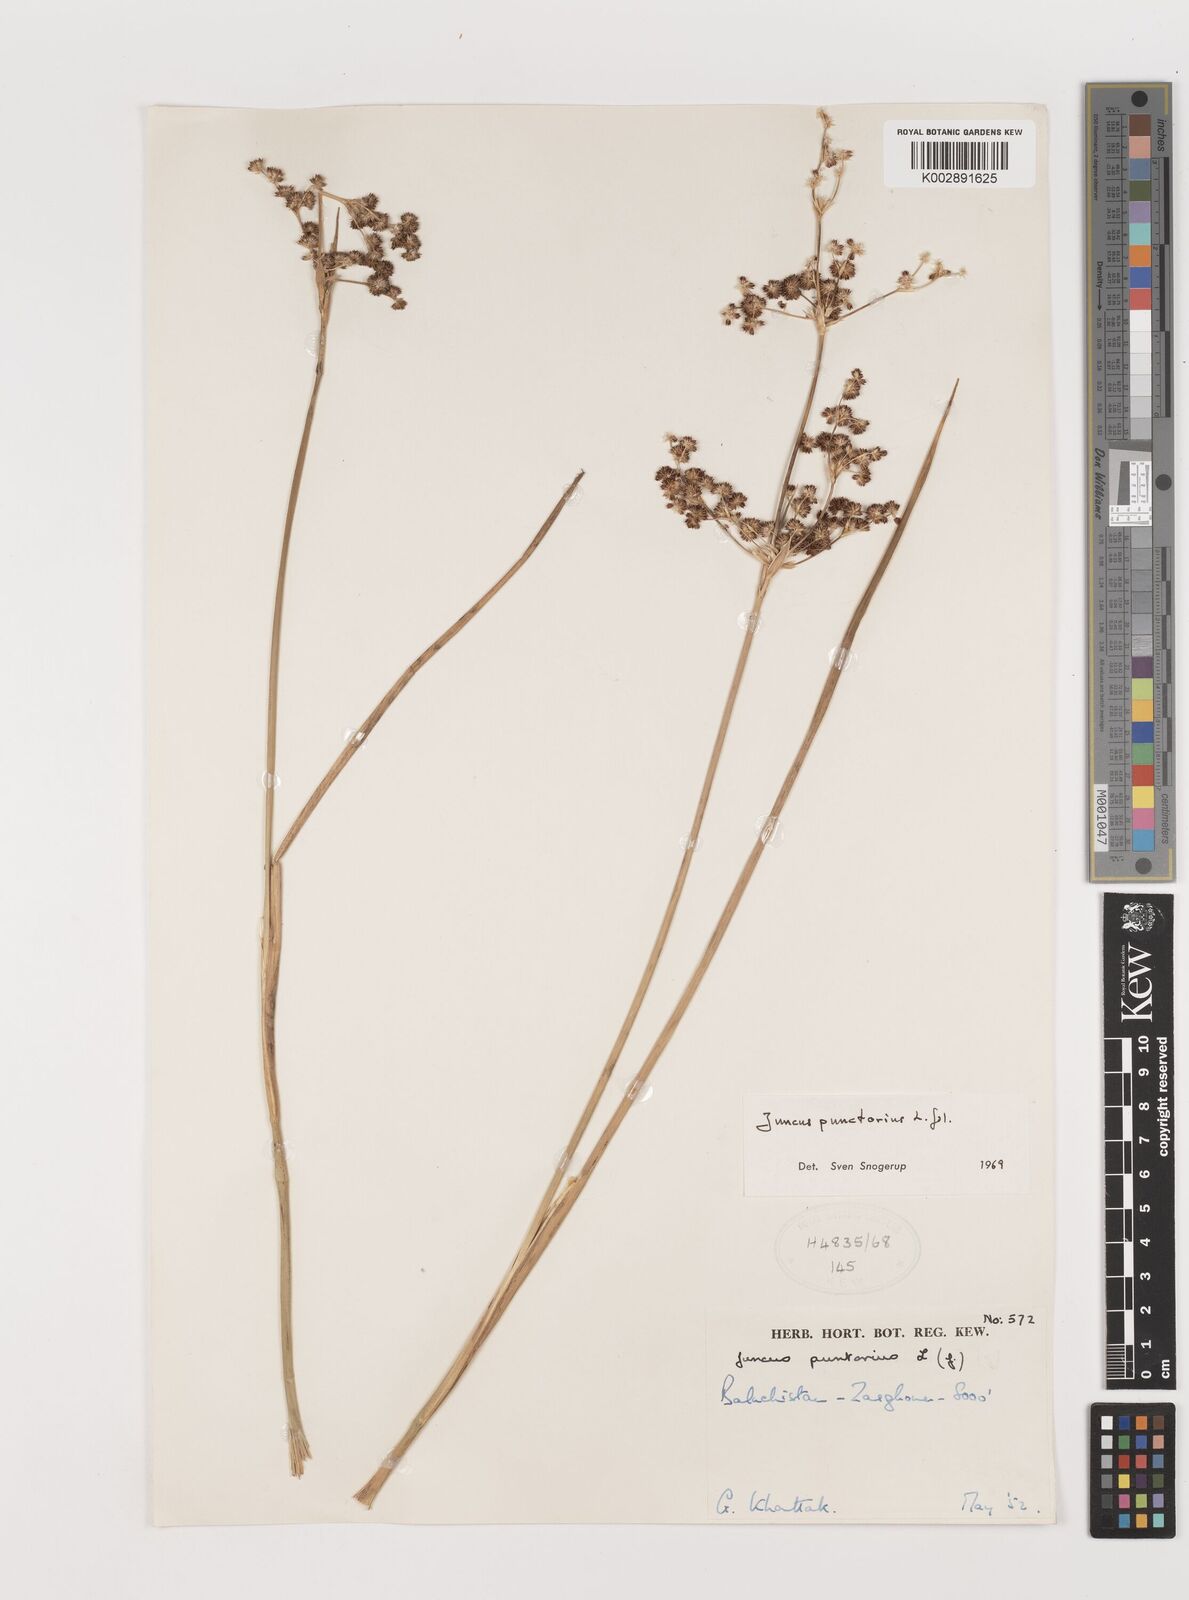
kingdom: Plantae
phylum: Tracheophyta
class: Liliopsida
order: Poales
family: Juncaceae
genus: Juncus
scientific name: Juncus punctorius
